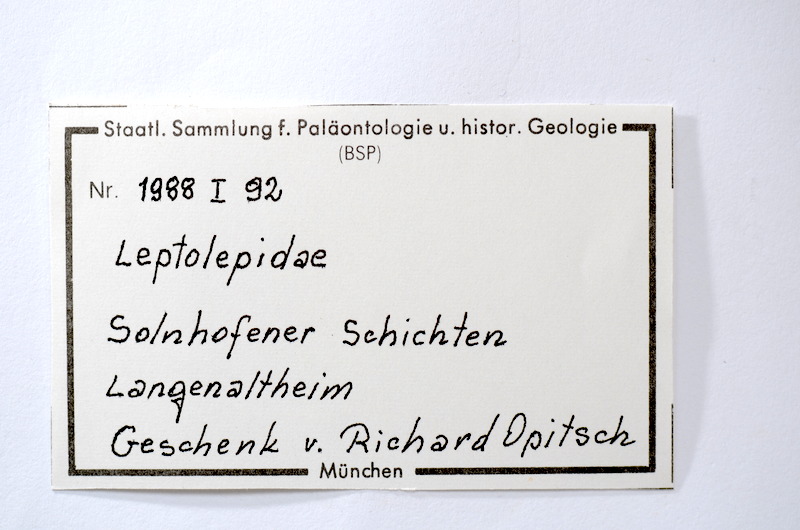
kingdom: Animalia
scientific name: Animalia
